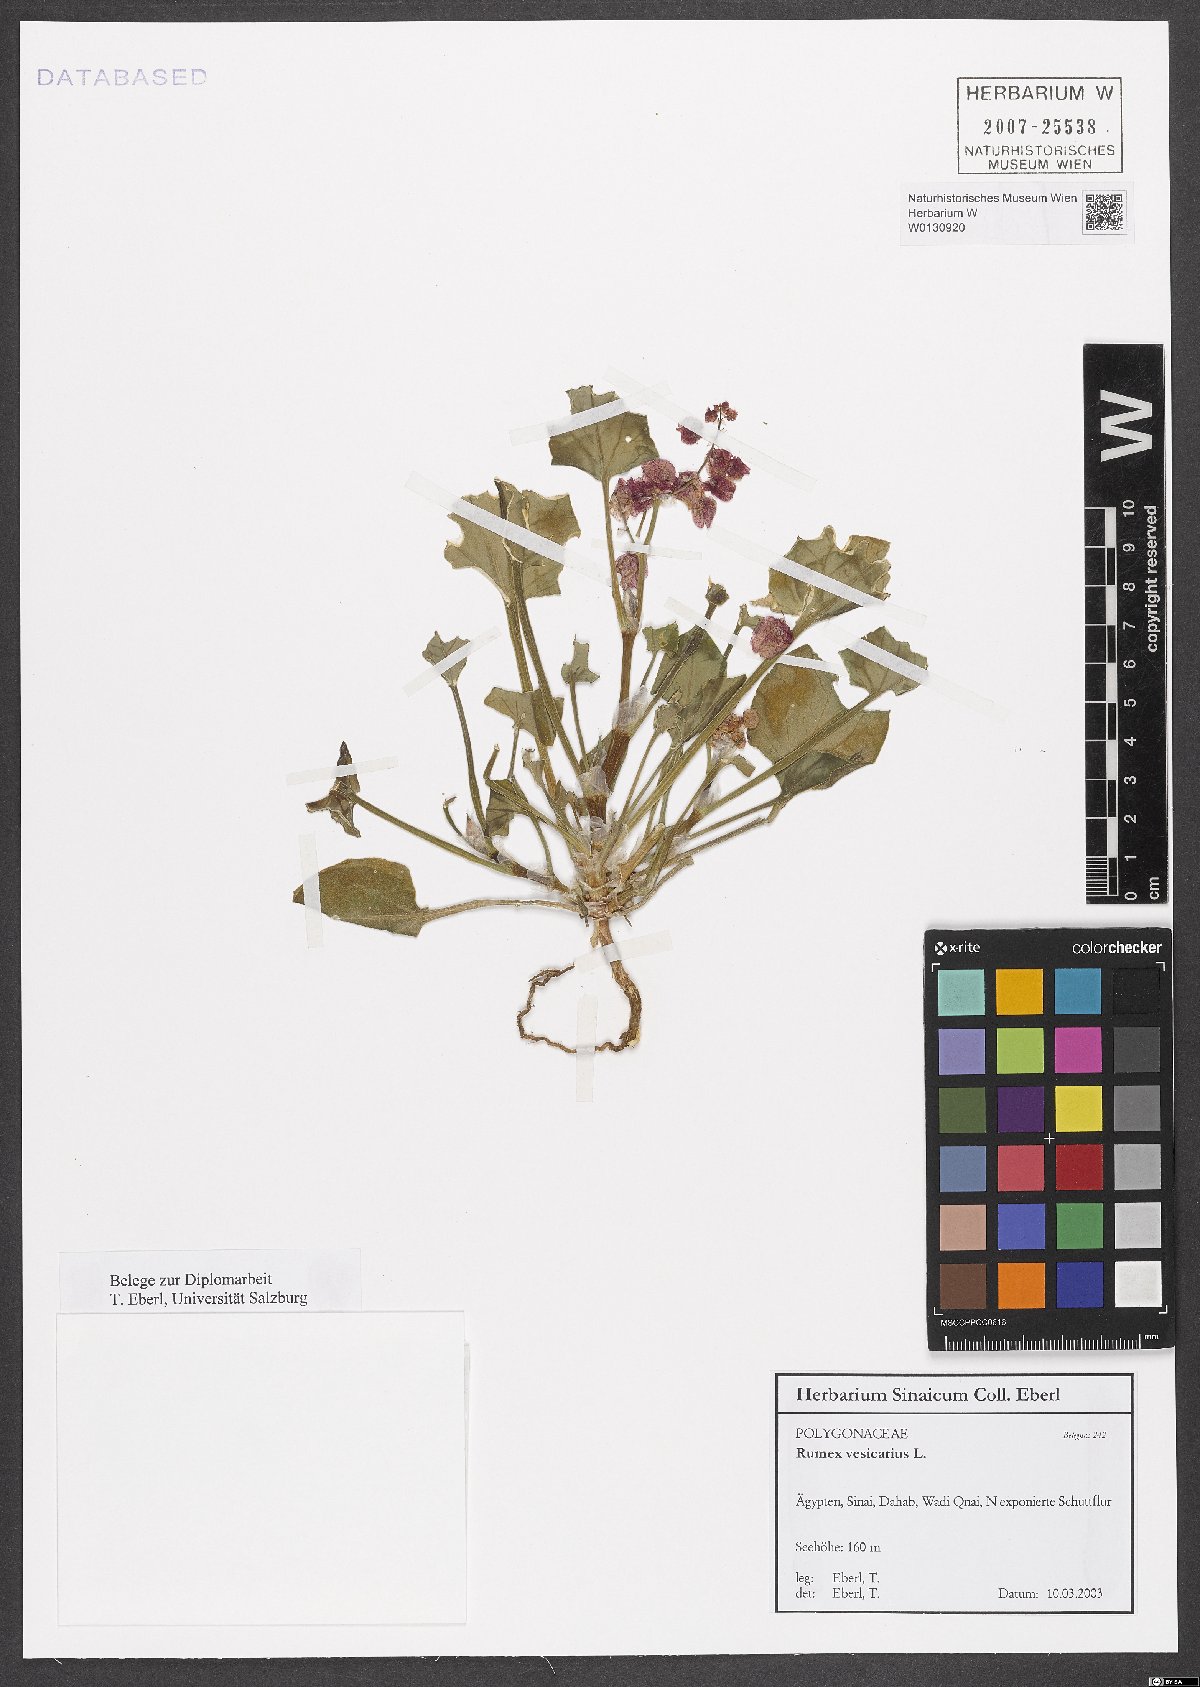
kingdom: Plantae
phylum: Tracheophyta
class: Magnoliopsida
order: Caryophyllales
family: Polygonaceae
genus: Rumex
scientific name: Rumex vesicarius
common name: Bladder dock
